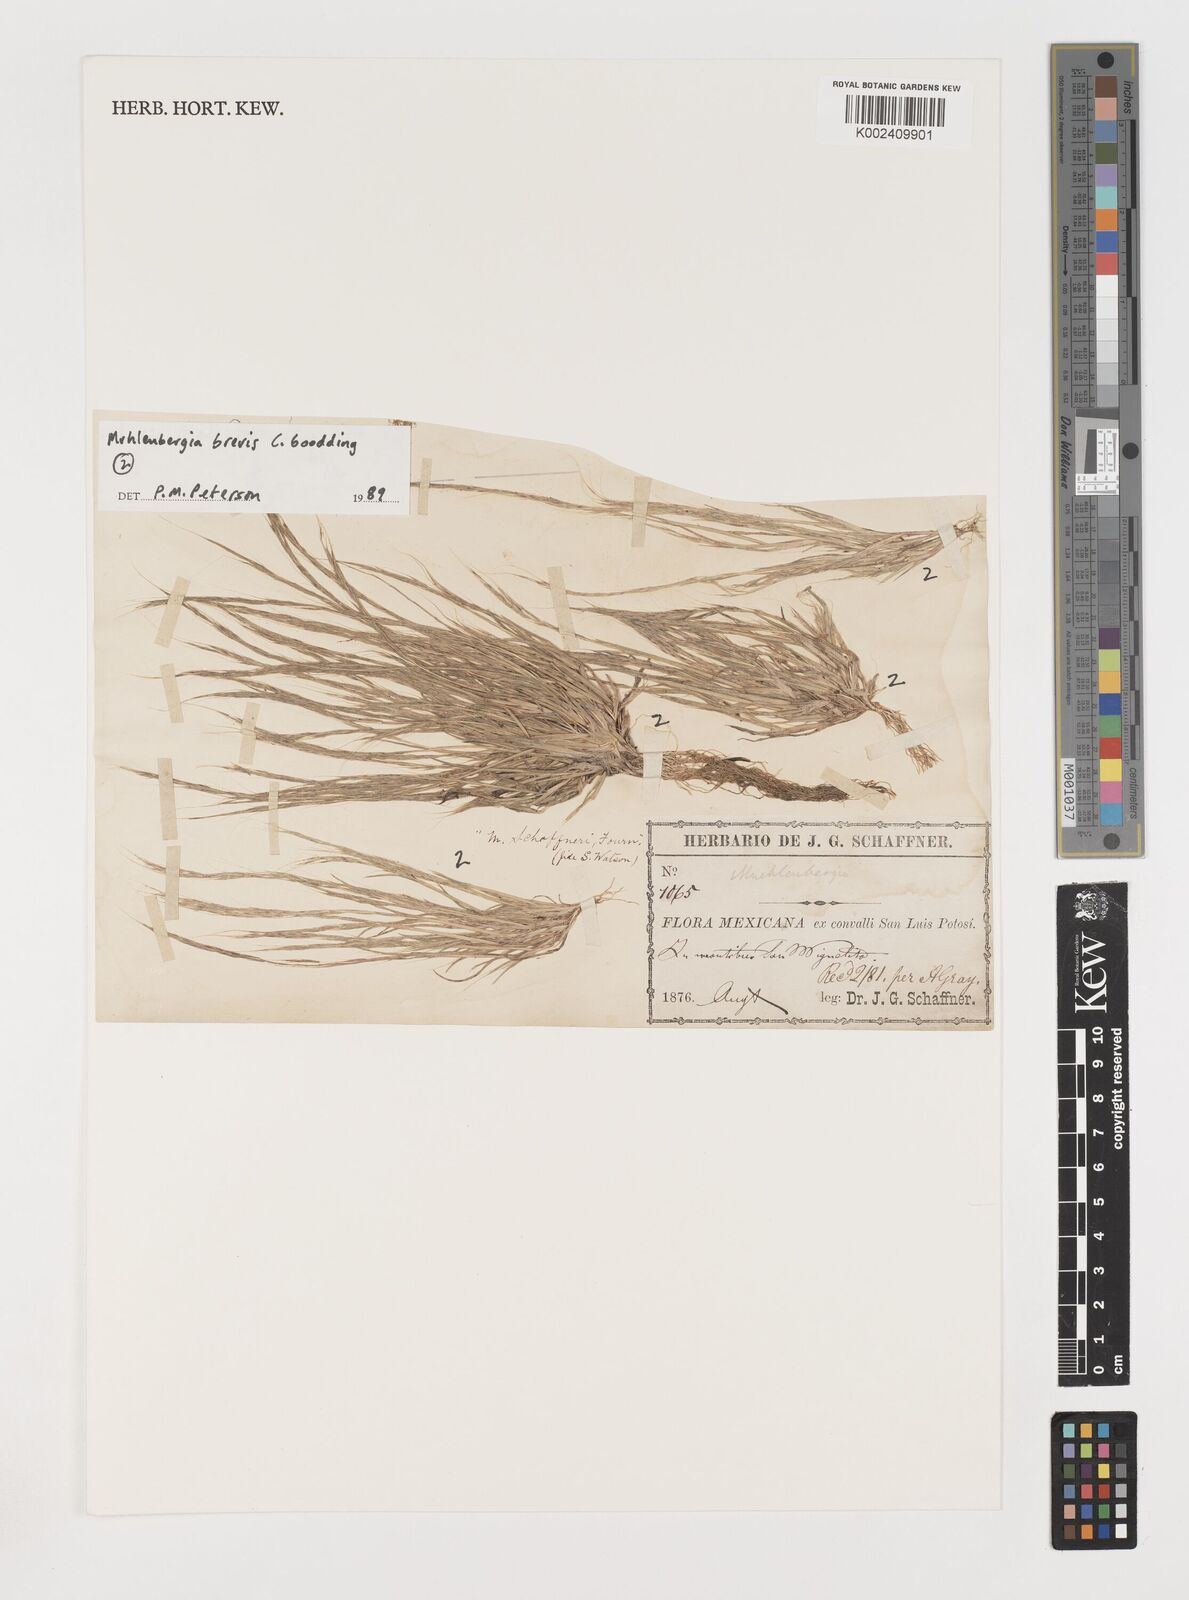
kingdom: Plantae
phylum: Tracheophyta
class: Liliopsida
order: Poales
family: Poaceae
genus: Muhlenbergia
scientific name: Muhlenbergia brevis
